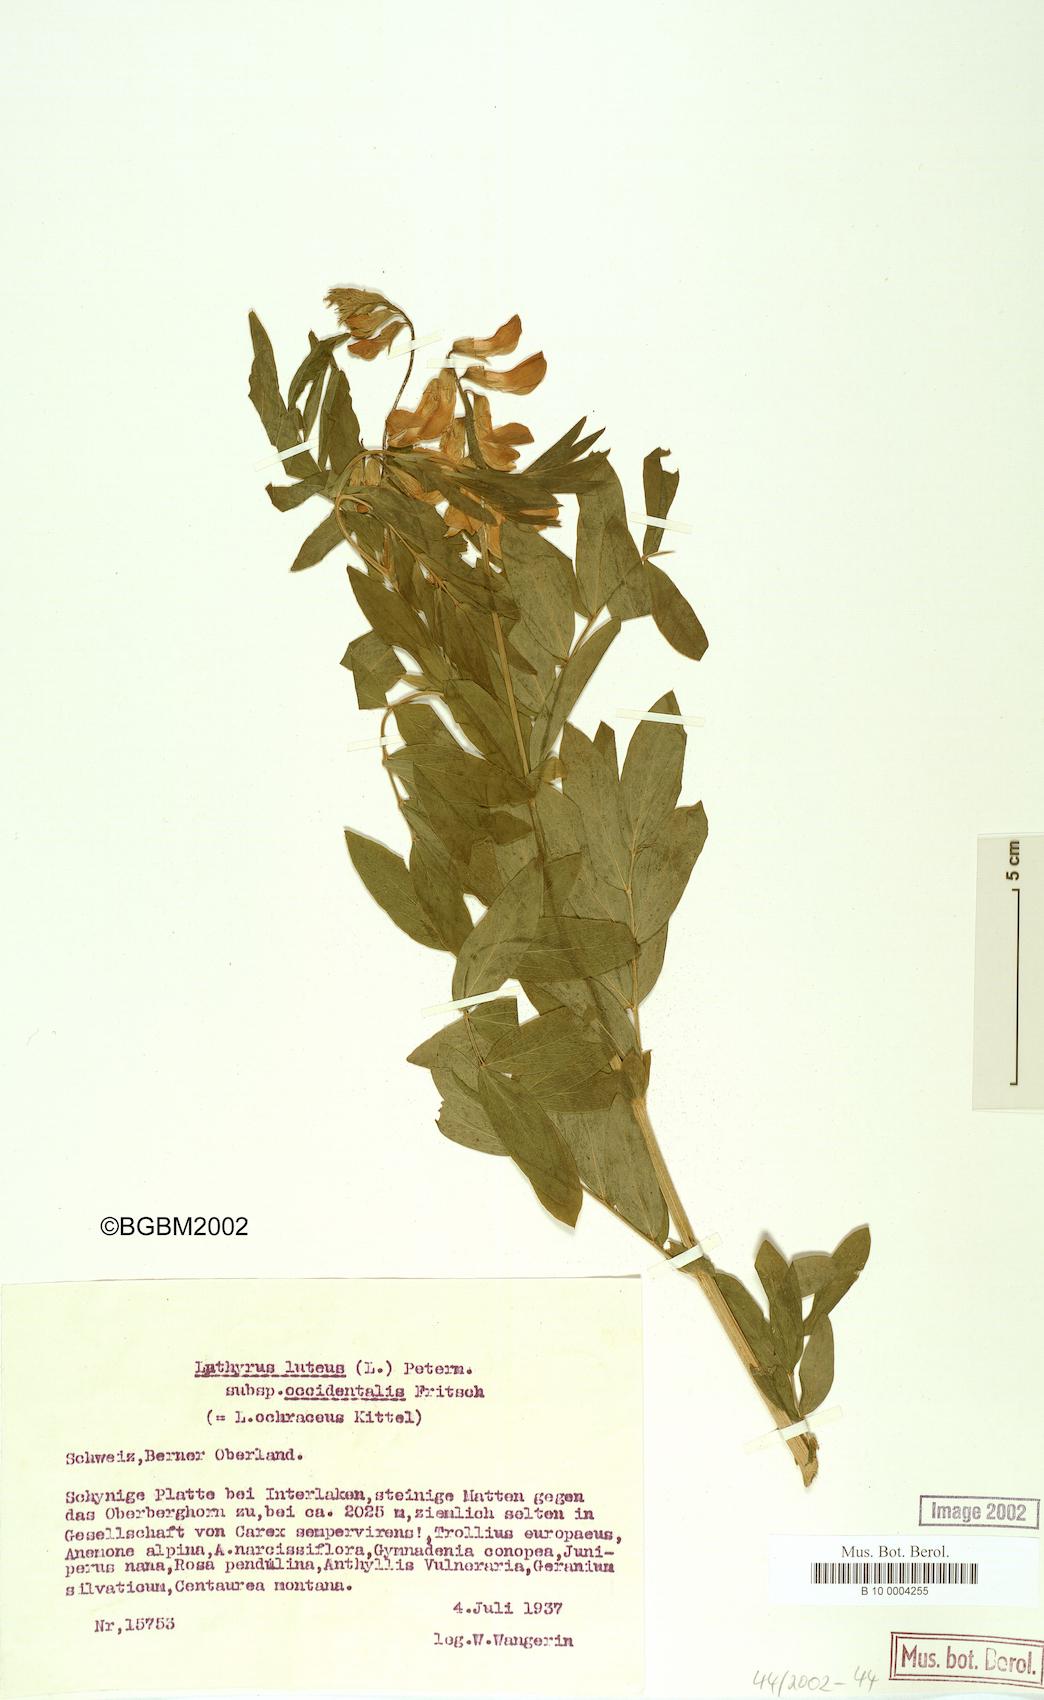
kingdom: Plantae
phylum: Tracheophyta
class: Magnoliopsida
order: Fabales
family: Fabaceae
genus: Lathyrus
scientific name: Lathyrus gmelinii
